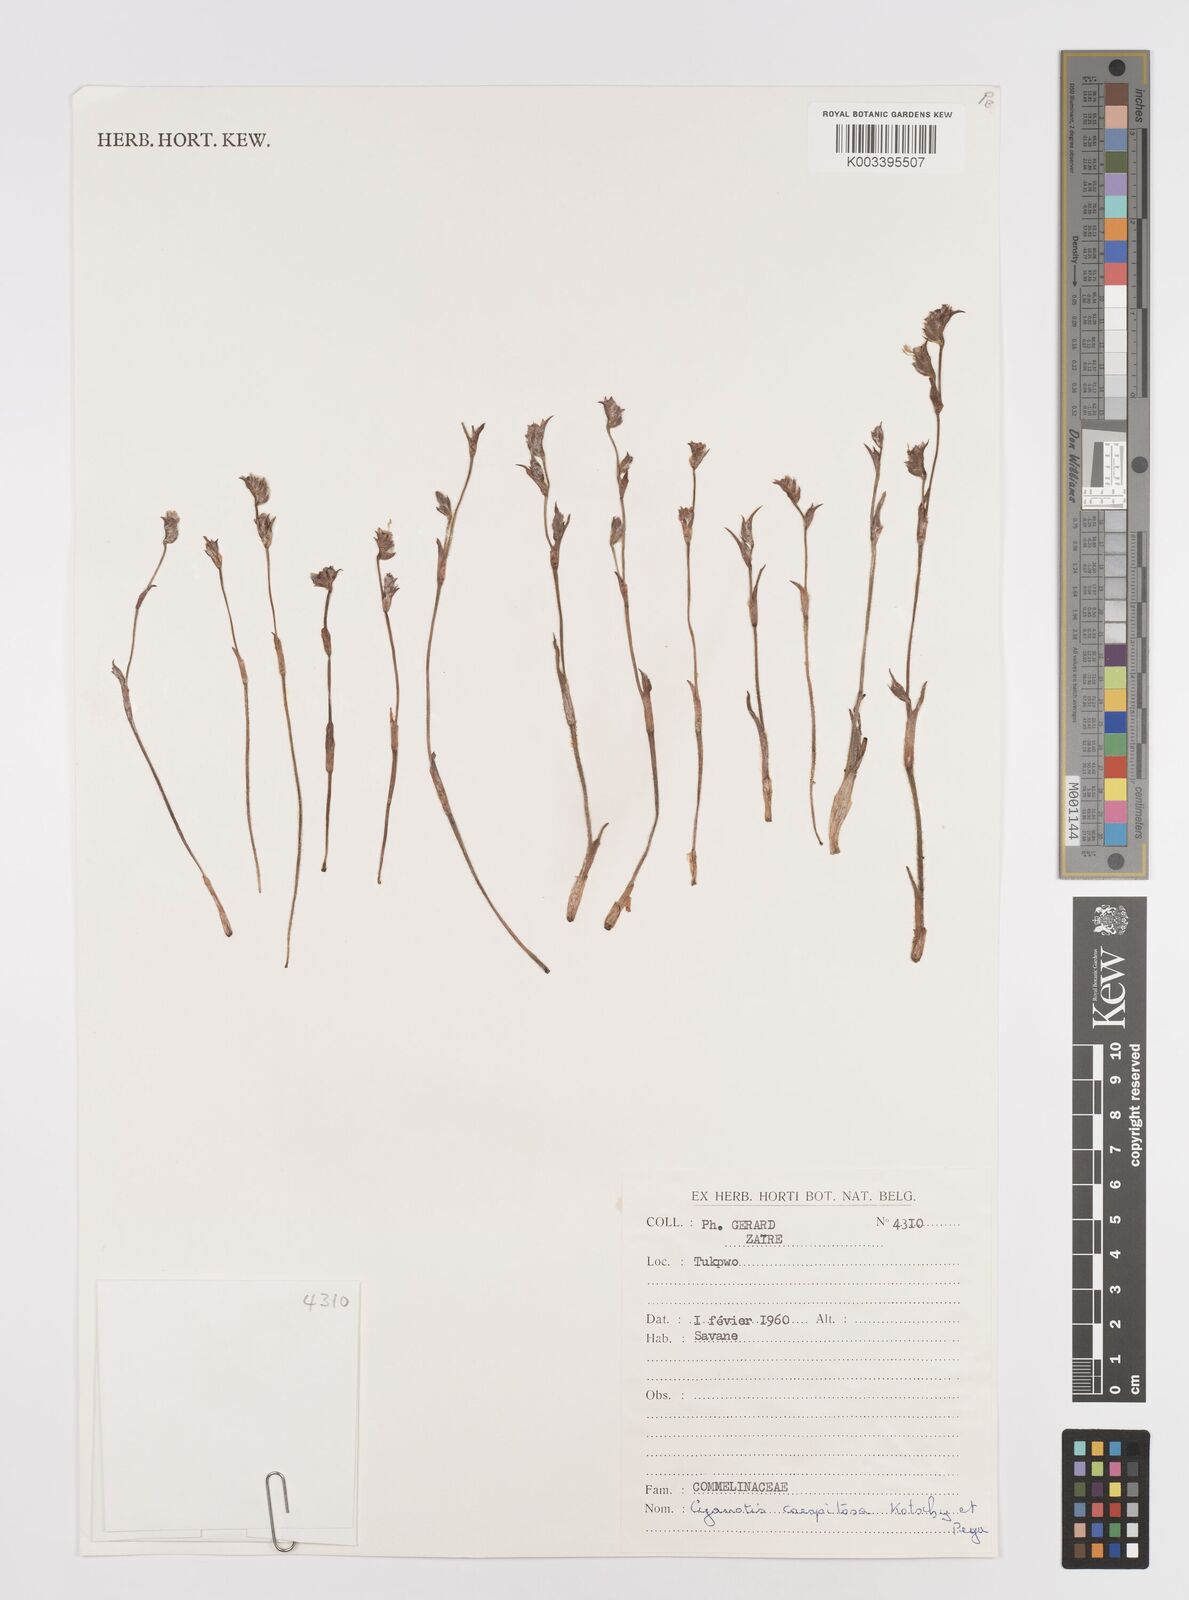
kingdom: Plantae
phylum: Tracheophyta
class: Liliopsida
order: Commelinales
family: Commelinaceae
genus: Cyanotis
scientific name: Cyanotis caespitosa
